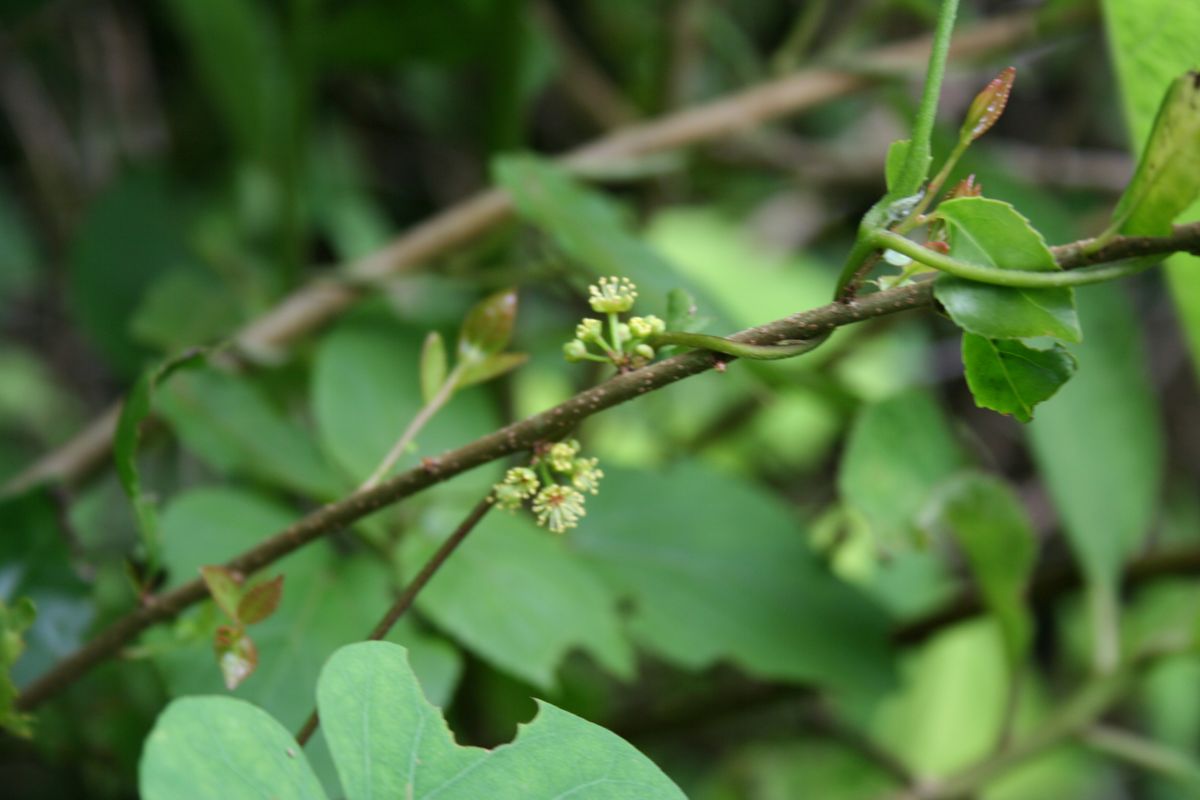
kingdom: Plantae
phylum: Tracheophyta
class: Magnoliopsida
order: Malpighiales
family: Salicaceae
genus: Xylosma
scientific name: Xylosma
